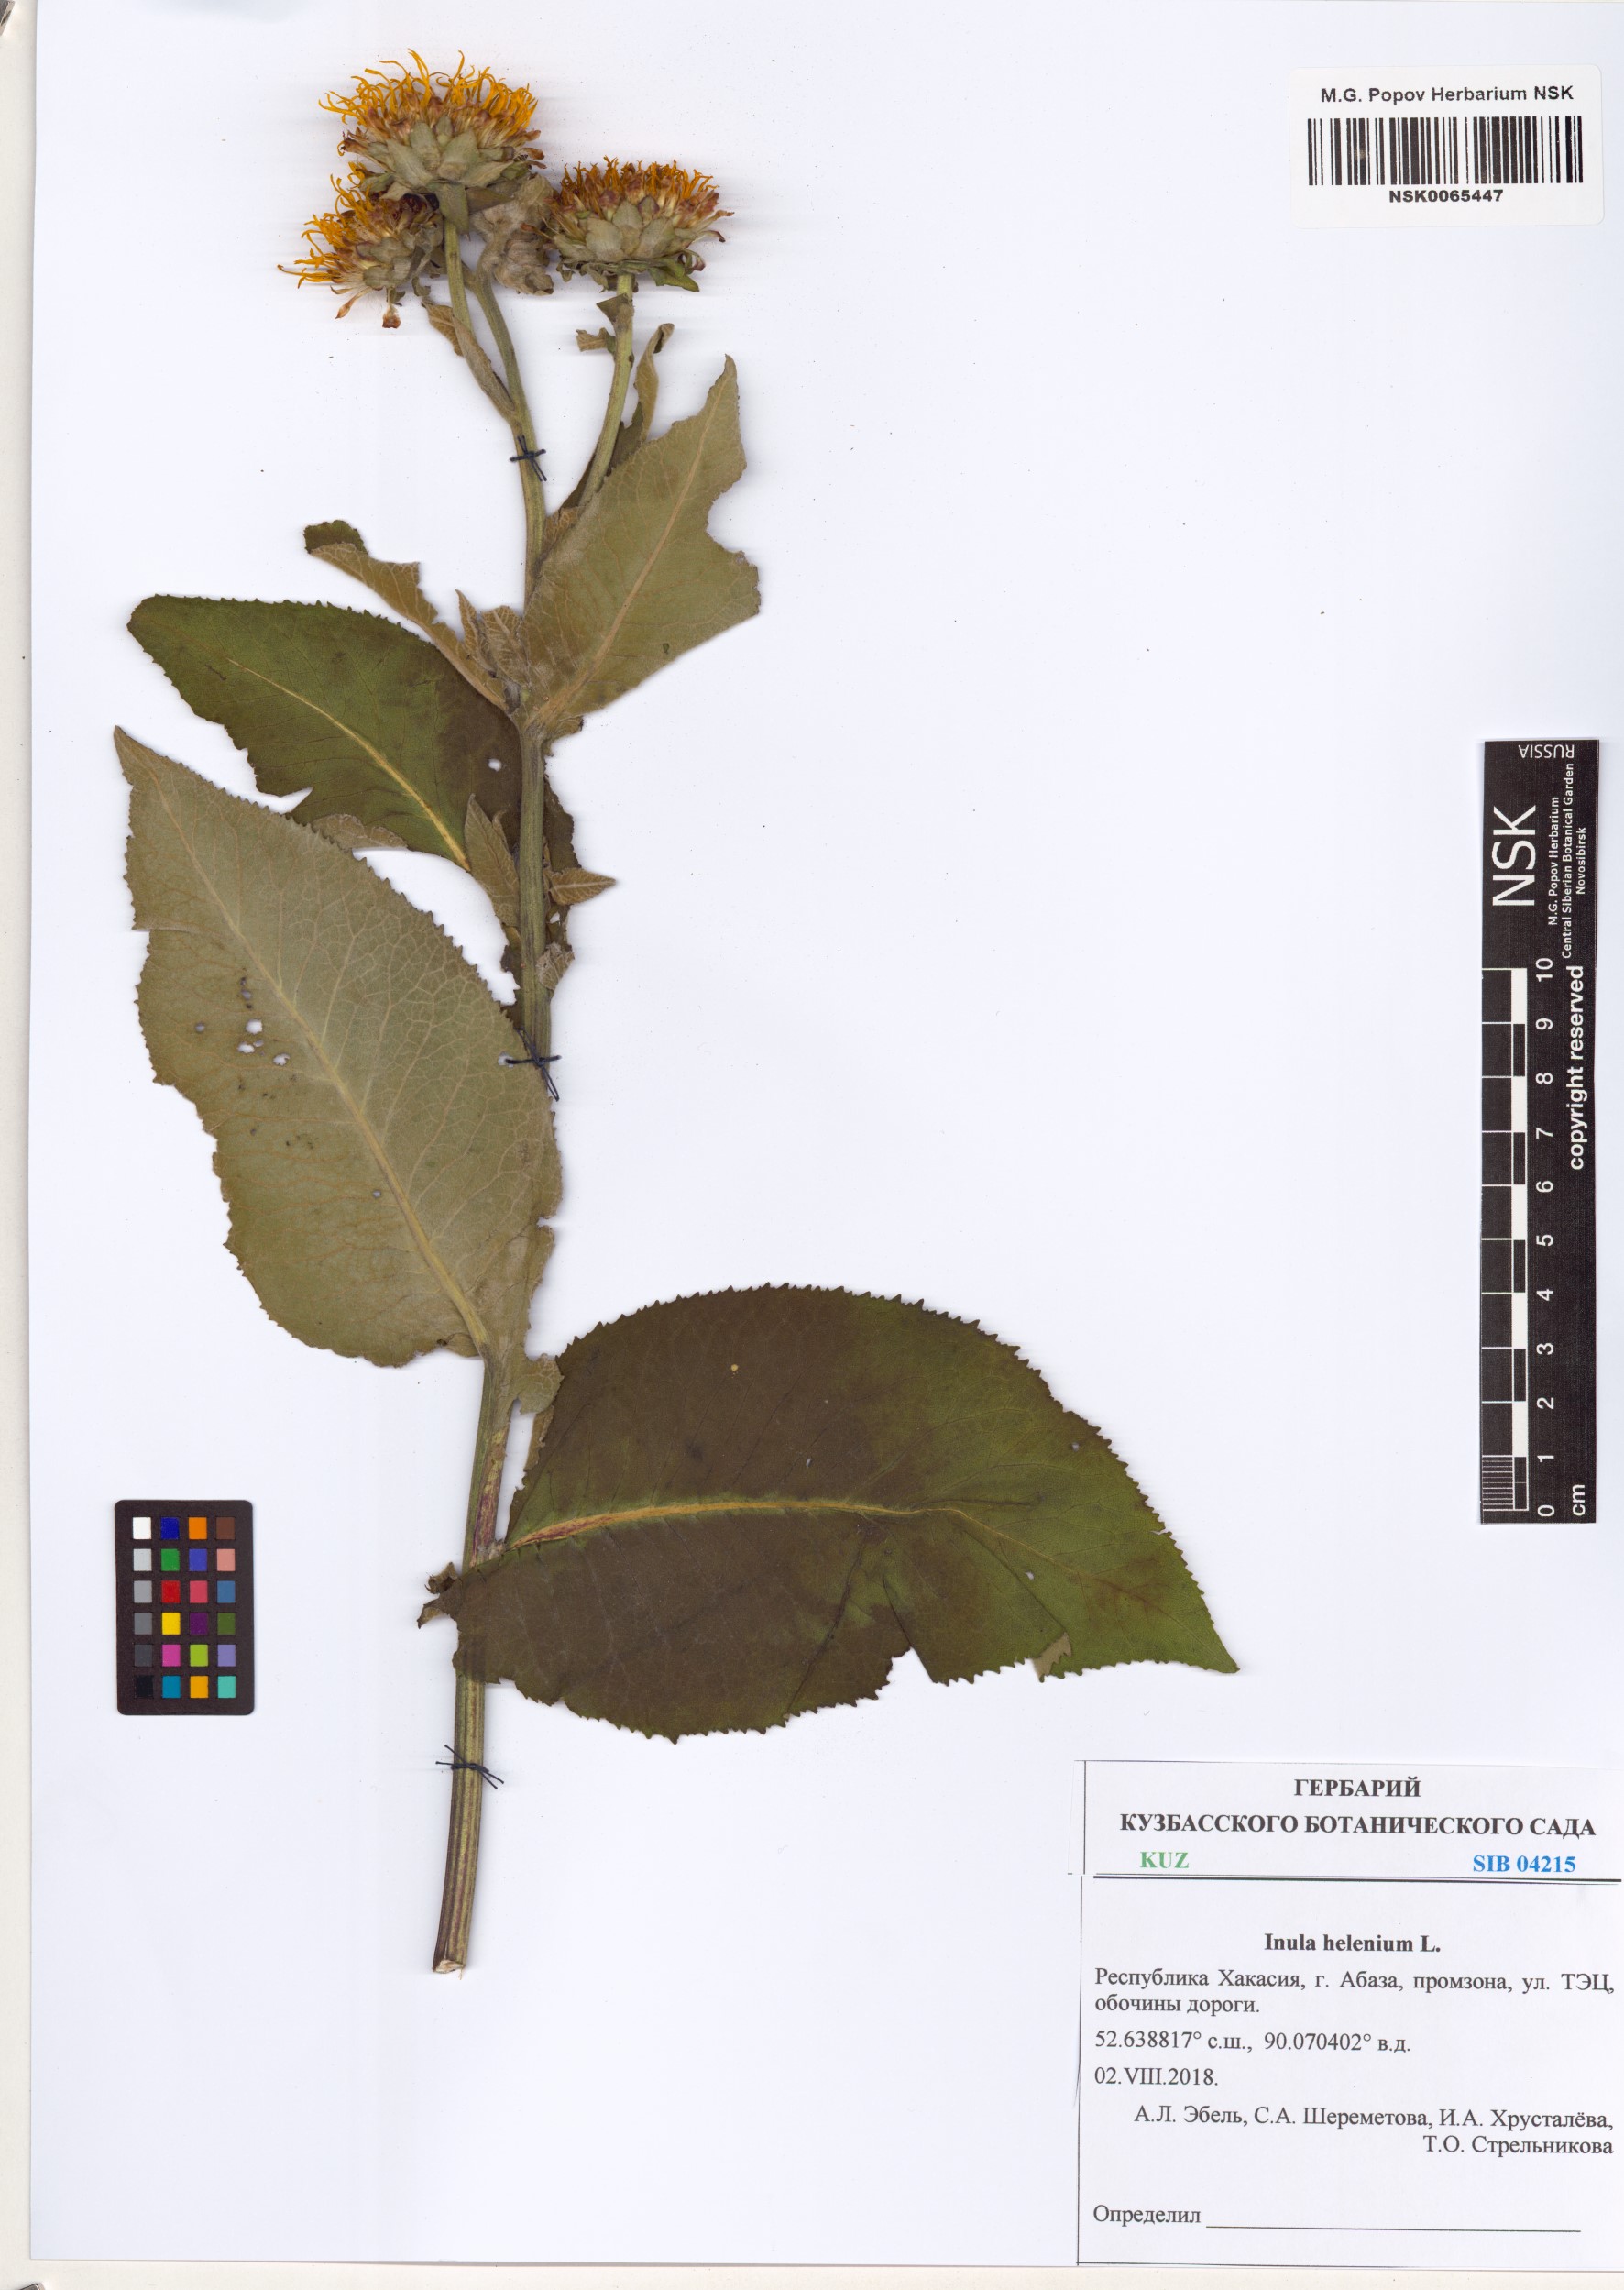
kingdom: Plantae
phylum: Tracheophyta
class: Magnoliopsida
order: Asterales
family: Asteraceae
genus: Inula
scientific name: Inula helenium
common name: Elecampane
